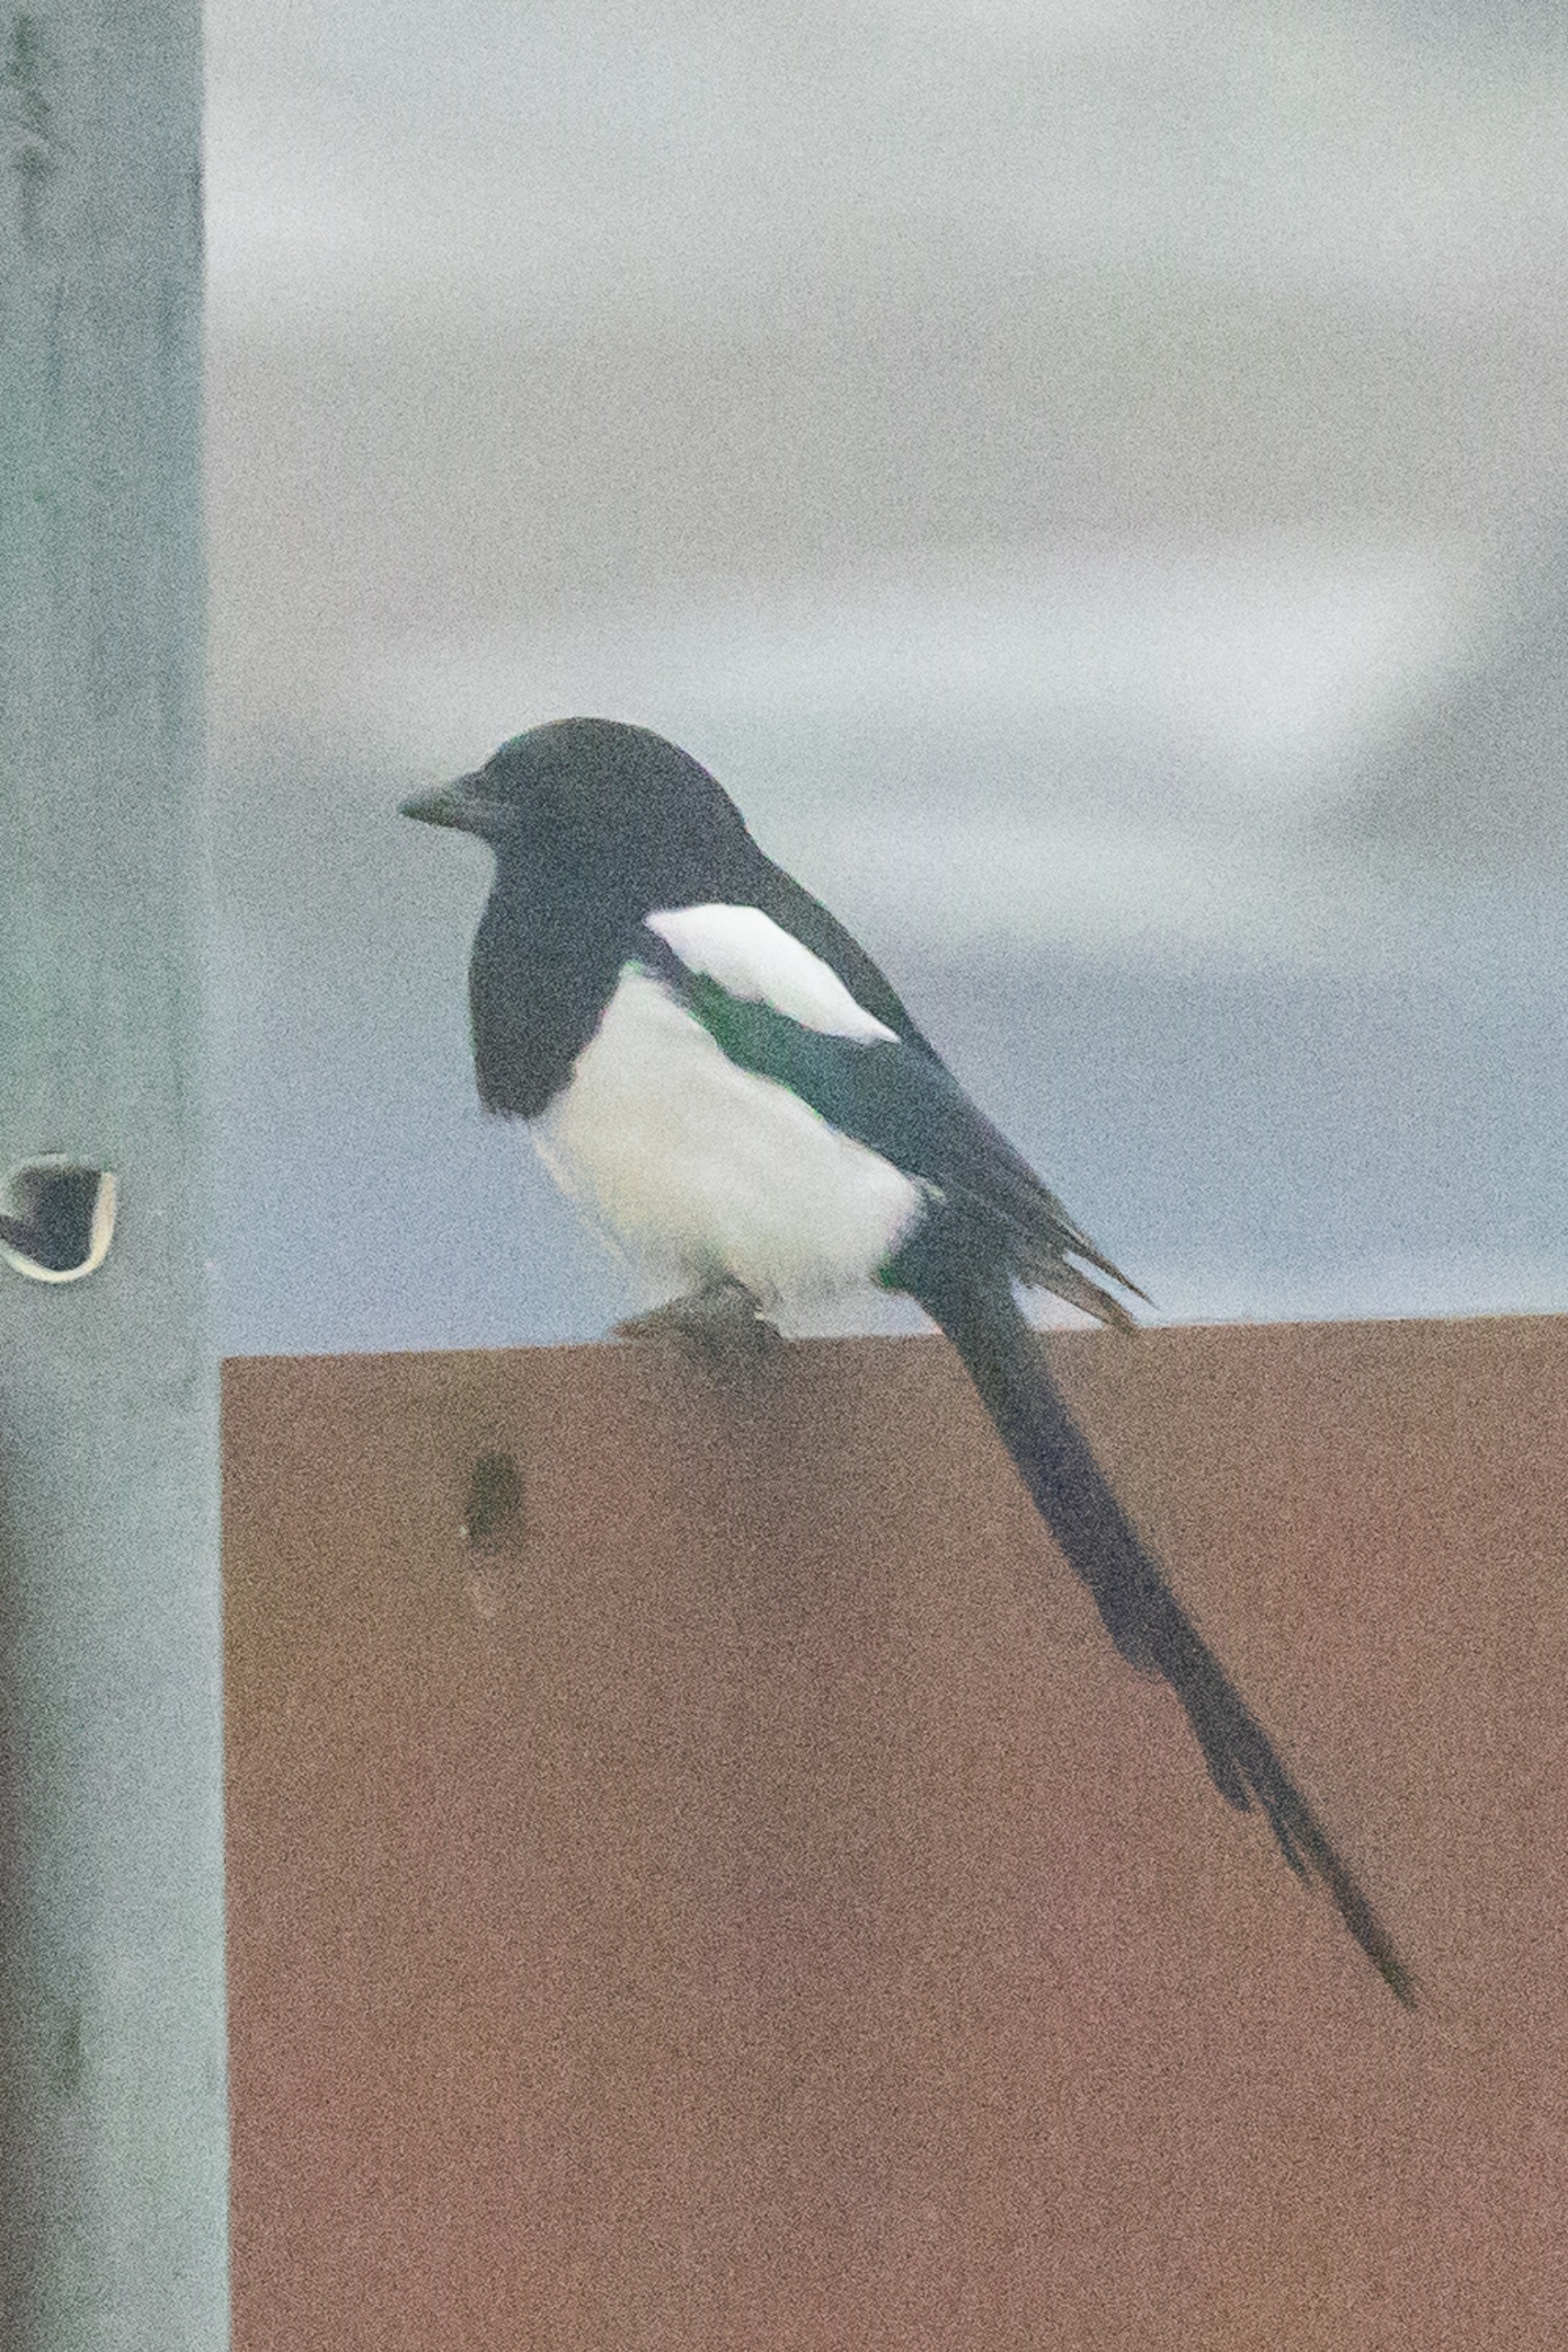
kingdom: Animalia
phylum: Chordata
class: Aves
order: Passeriformes
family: Corvidae
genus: Pica
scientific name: Pica pica
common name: Husskade
